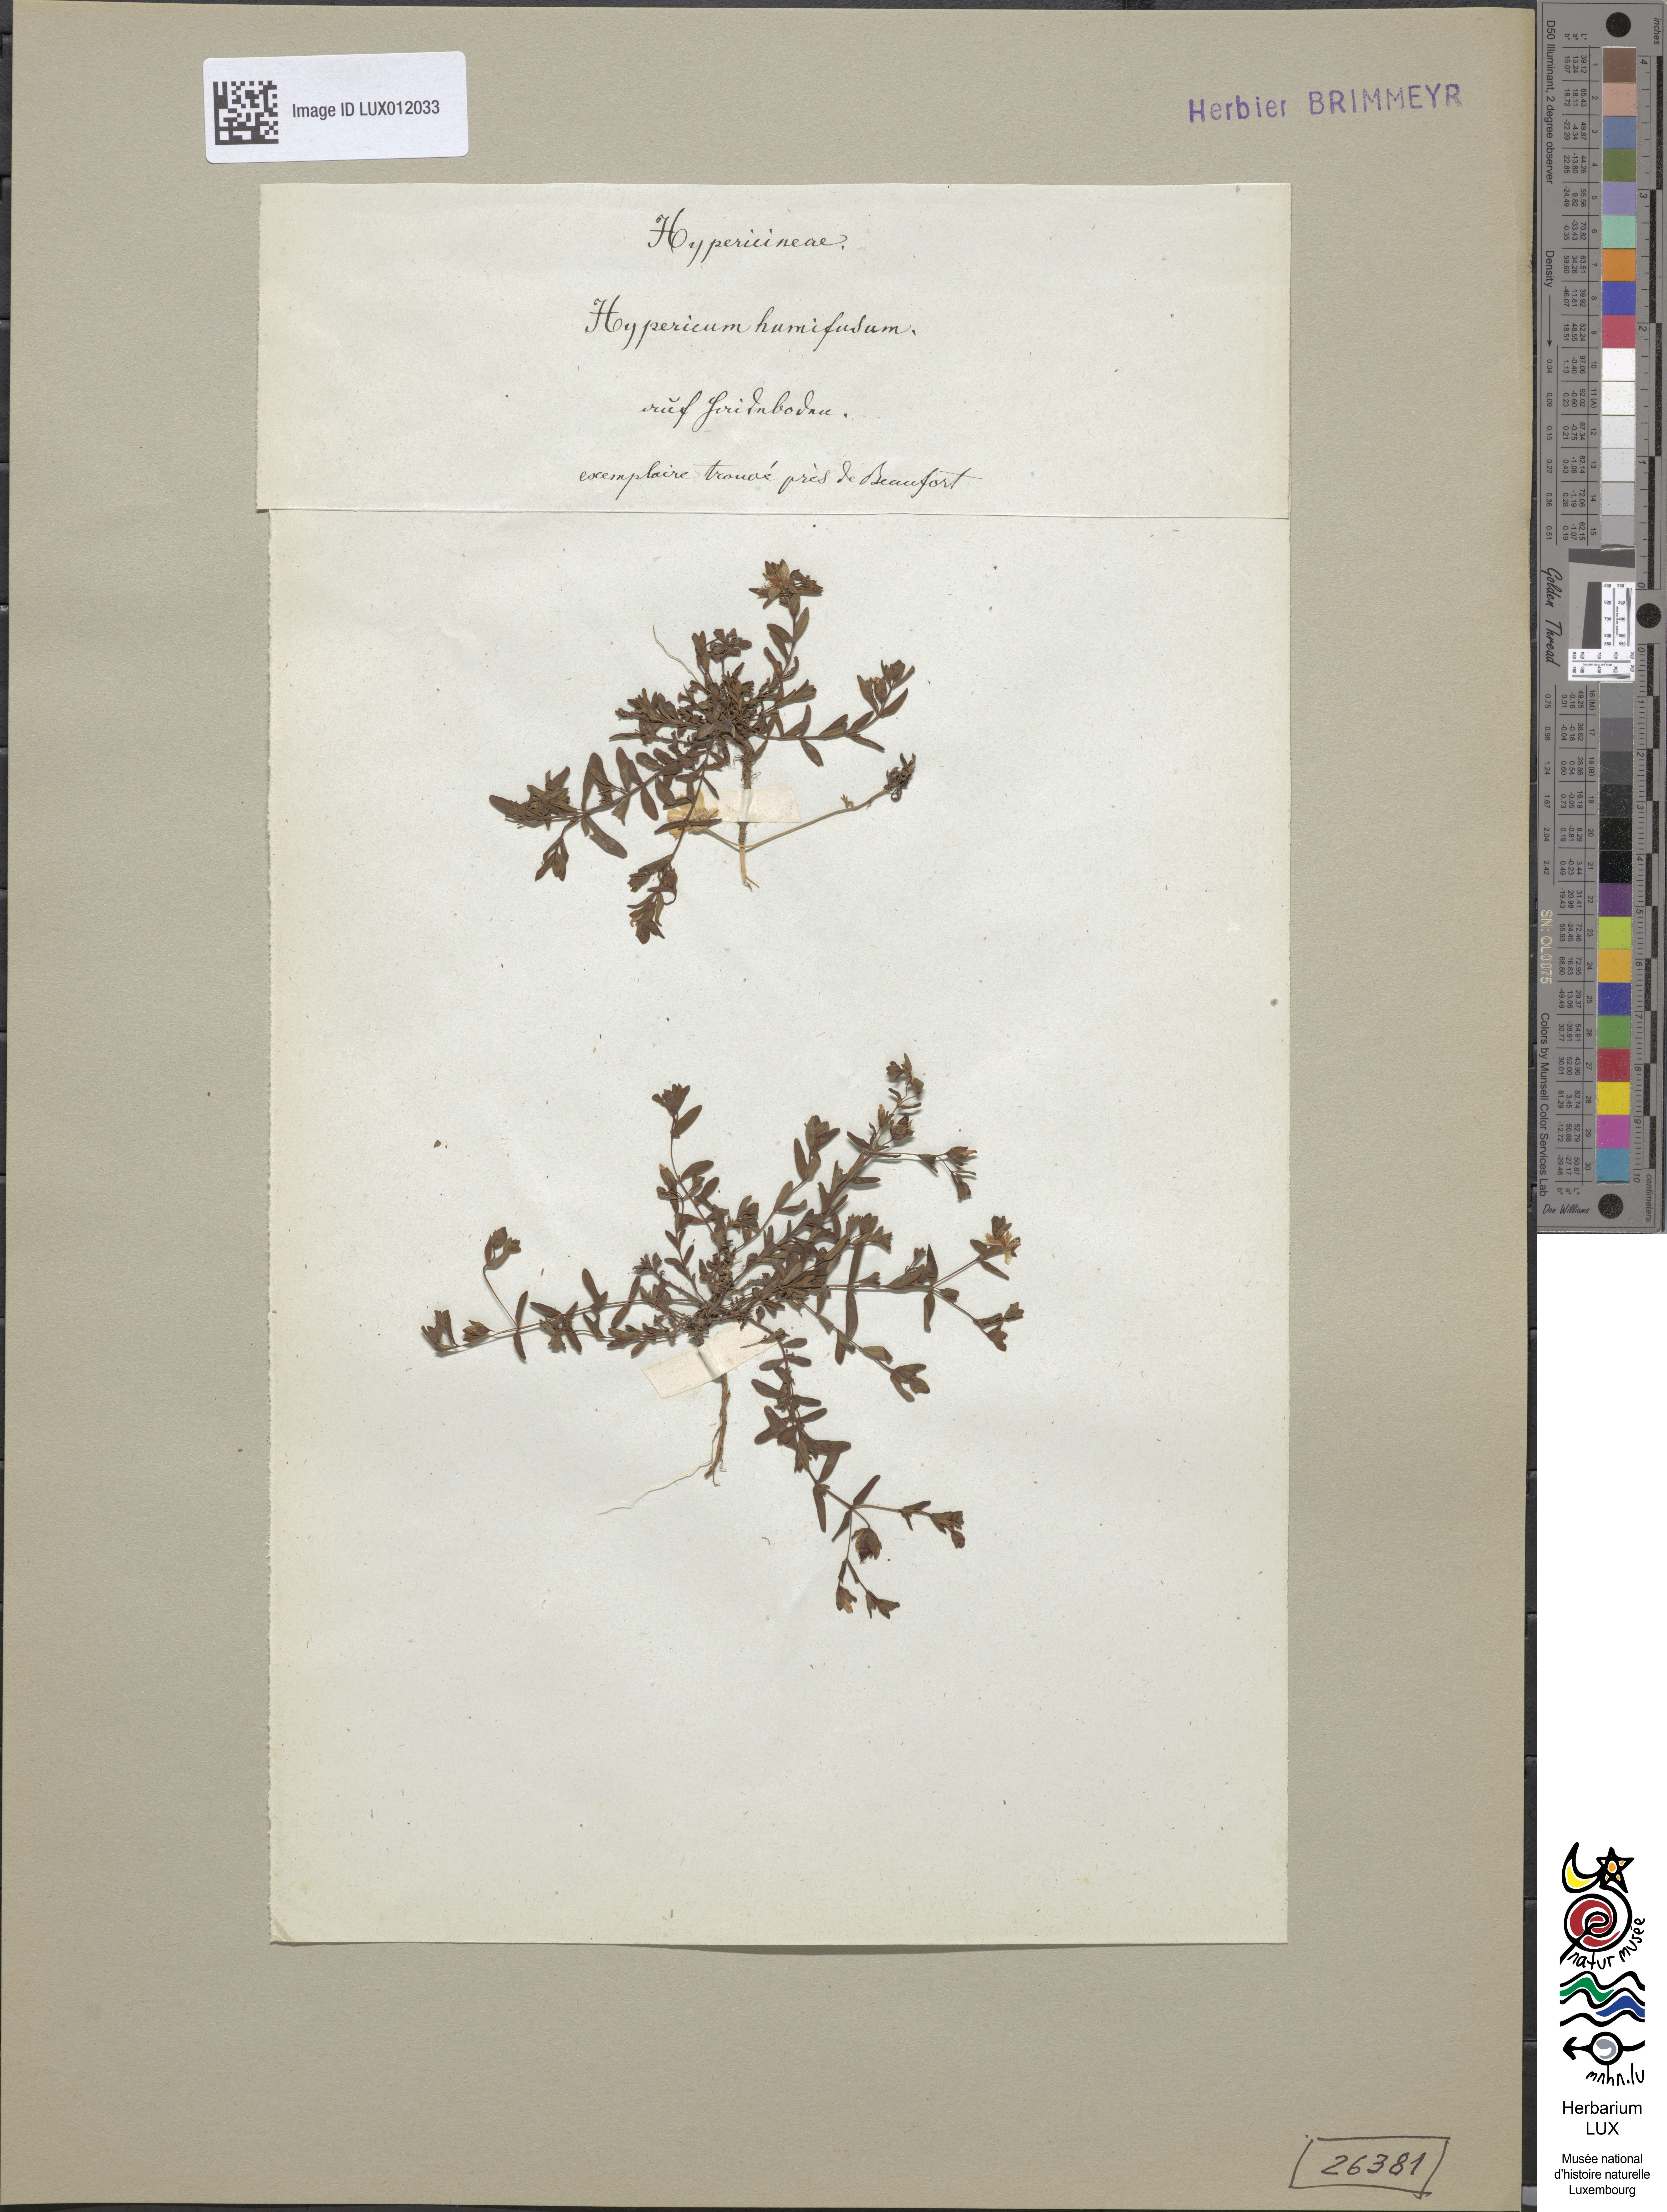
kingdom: Plantae
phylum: Tracheophyta
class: Magnoliopsida
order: Malpighiales
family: Hypericaceae
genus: Hypericum
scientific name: Hypericum humifusum
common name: Trailing st. john's-wort
